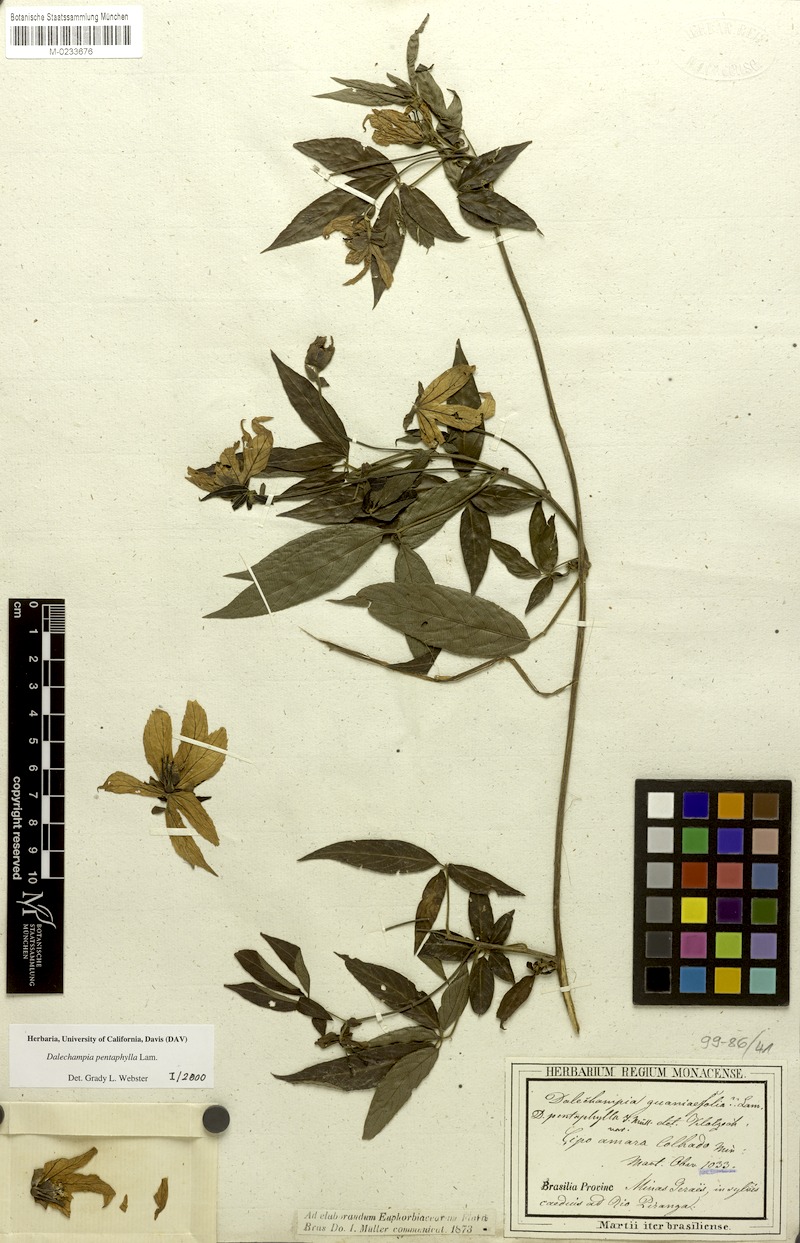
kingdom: Plantae
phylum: Tracheophyta
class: Magnoliopsida
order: Malpighiales
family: Euphorbiaceae
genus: Dalechampia
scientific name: Dalechampia pentaphylla
